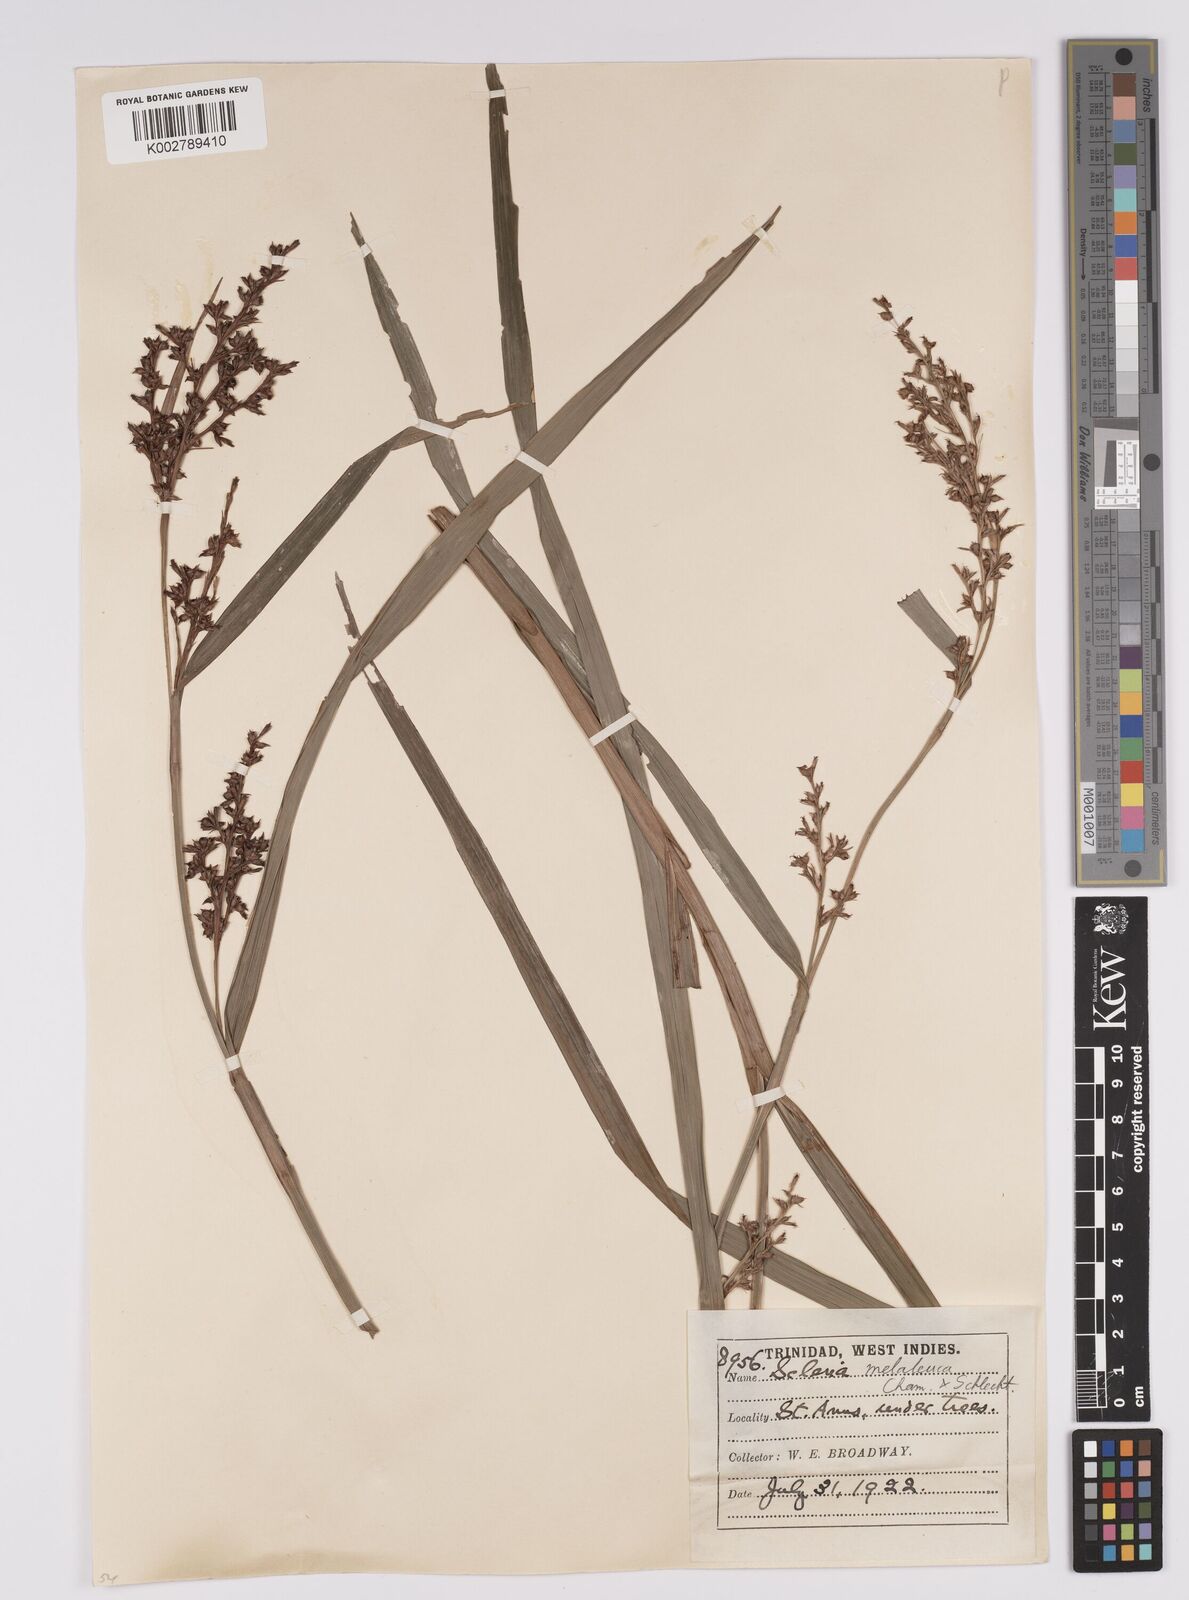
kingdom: Plantae
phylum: Tracheophyta
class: Liliopsida
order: Poales
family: Cyperaceae
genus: Scleria
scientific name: Scleria gaertneri
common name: Cortadera blanca
